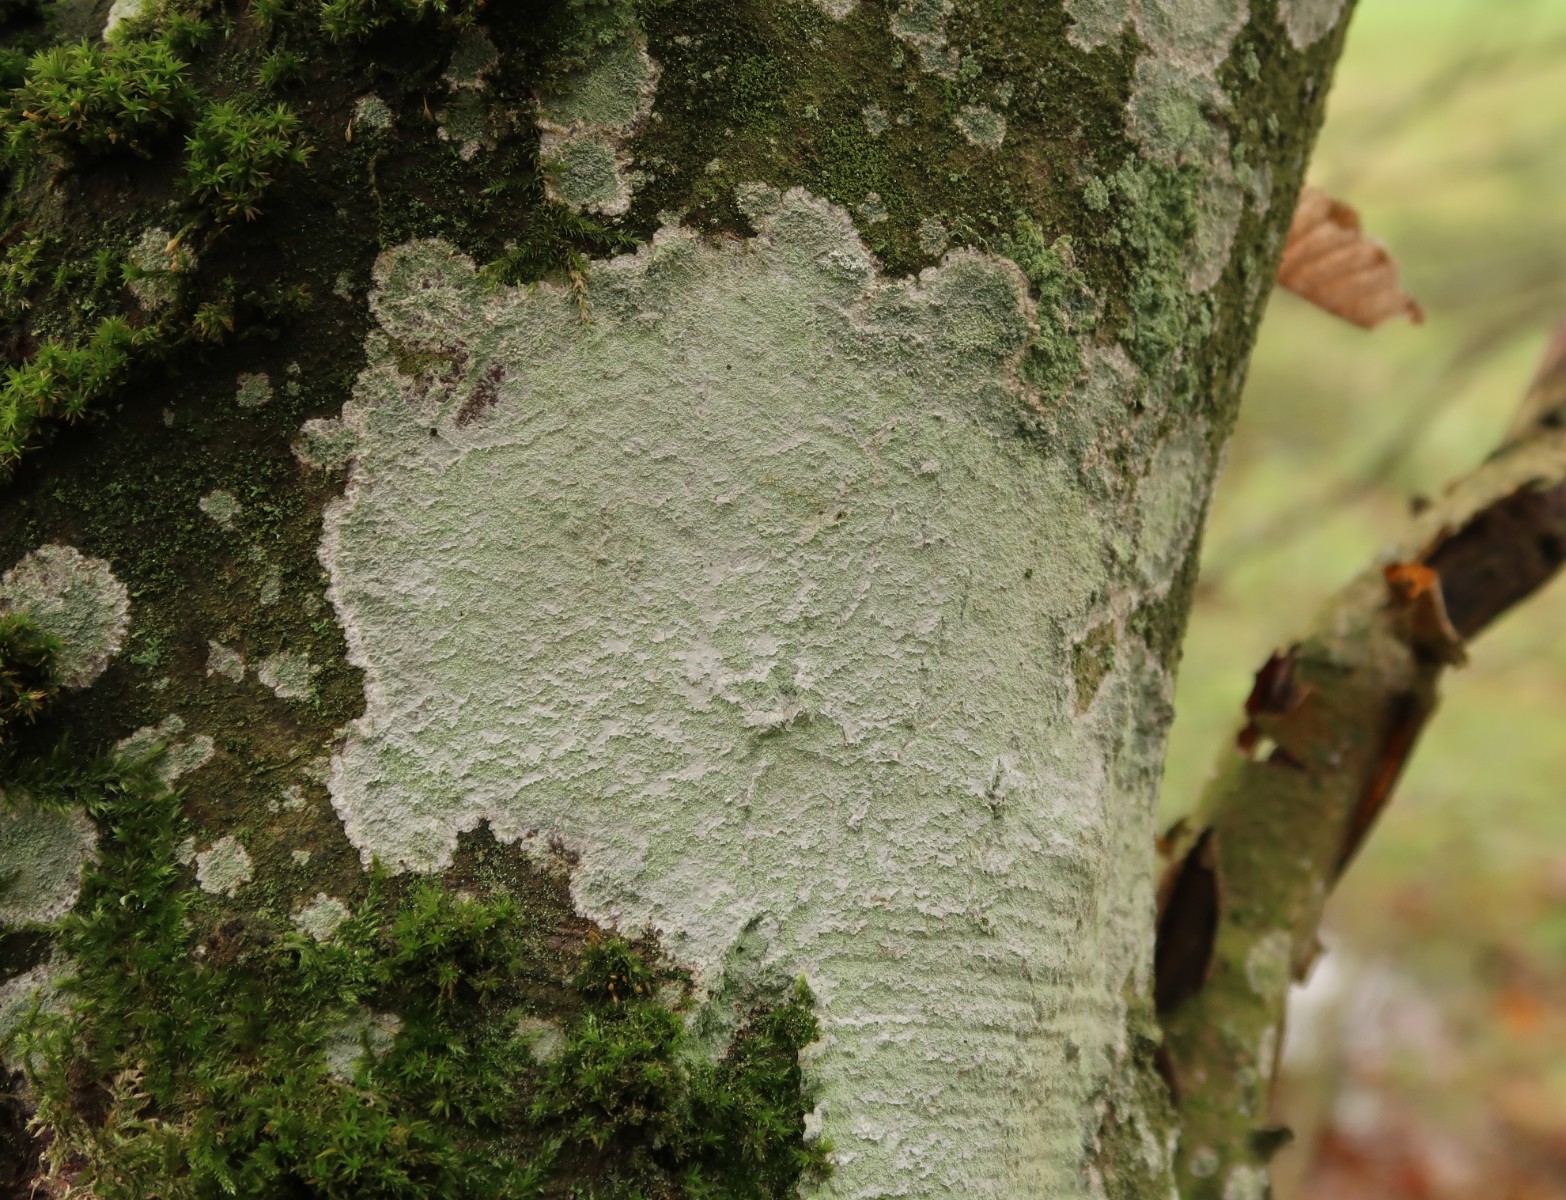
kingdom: Fungi
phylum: Ascomycota
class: Lecanoromycetes
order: Ostropales
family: Phlyctidaceae
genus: Phlyctis
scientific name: Phlyctis argena
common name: almindelig sølvlav
